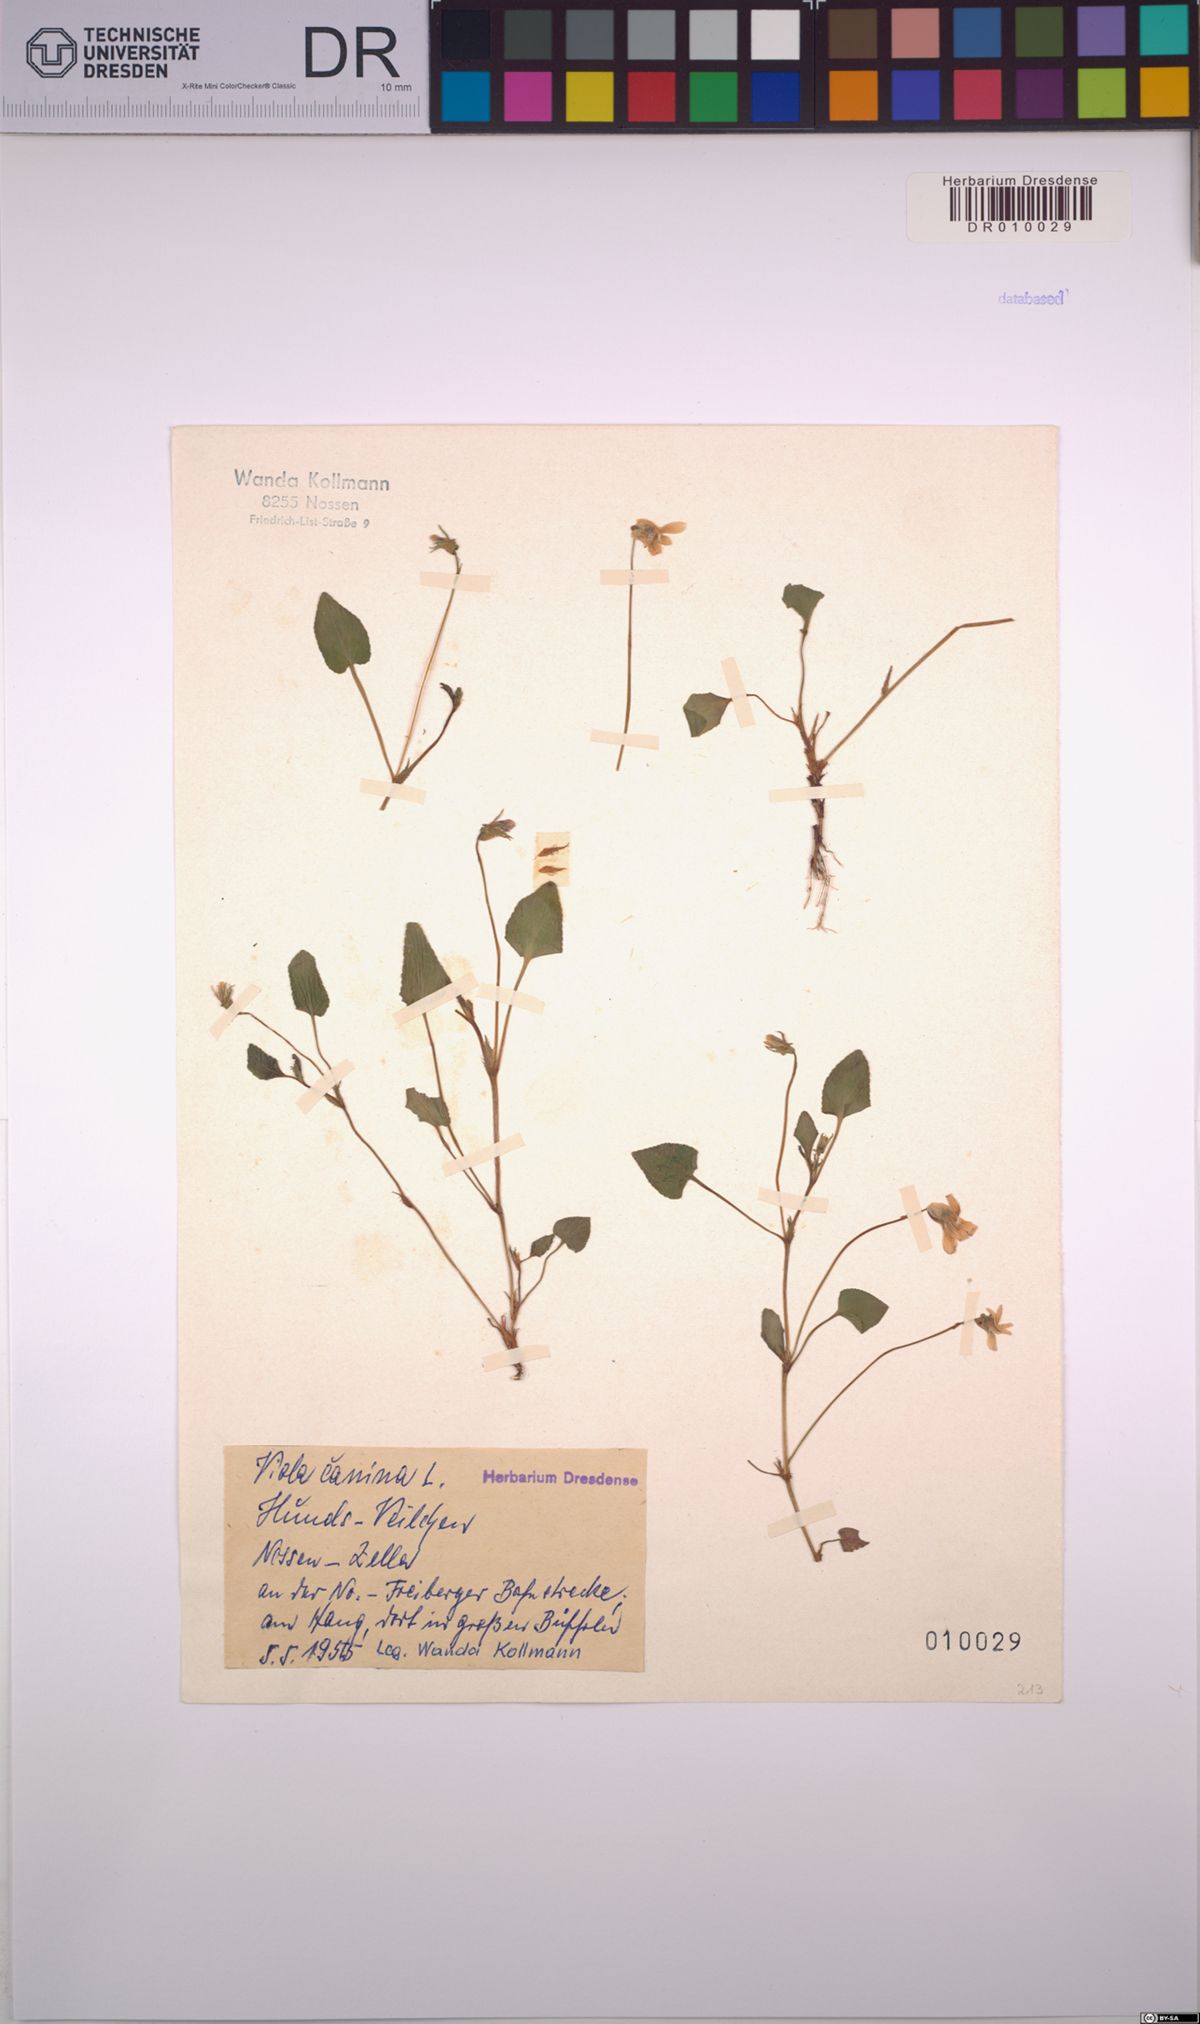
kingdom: Plantae
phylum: Tracheophyta
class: Magnoliopsida
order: Malpighiales
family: Violaceae
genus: Viola
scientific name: Viola canina
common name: Heath dog-violet
